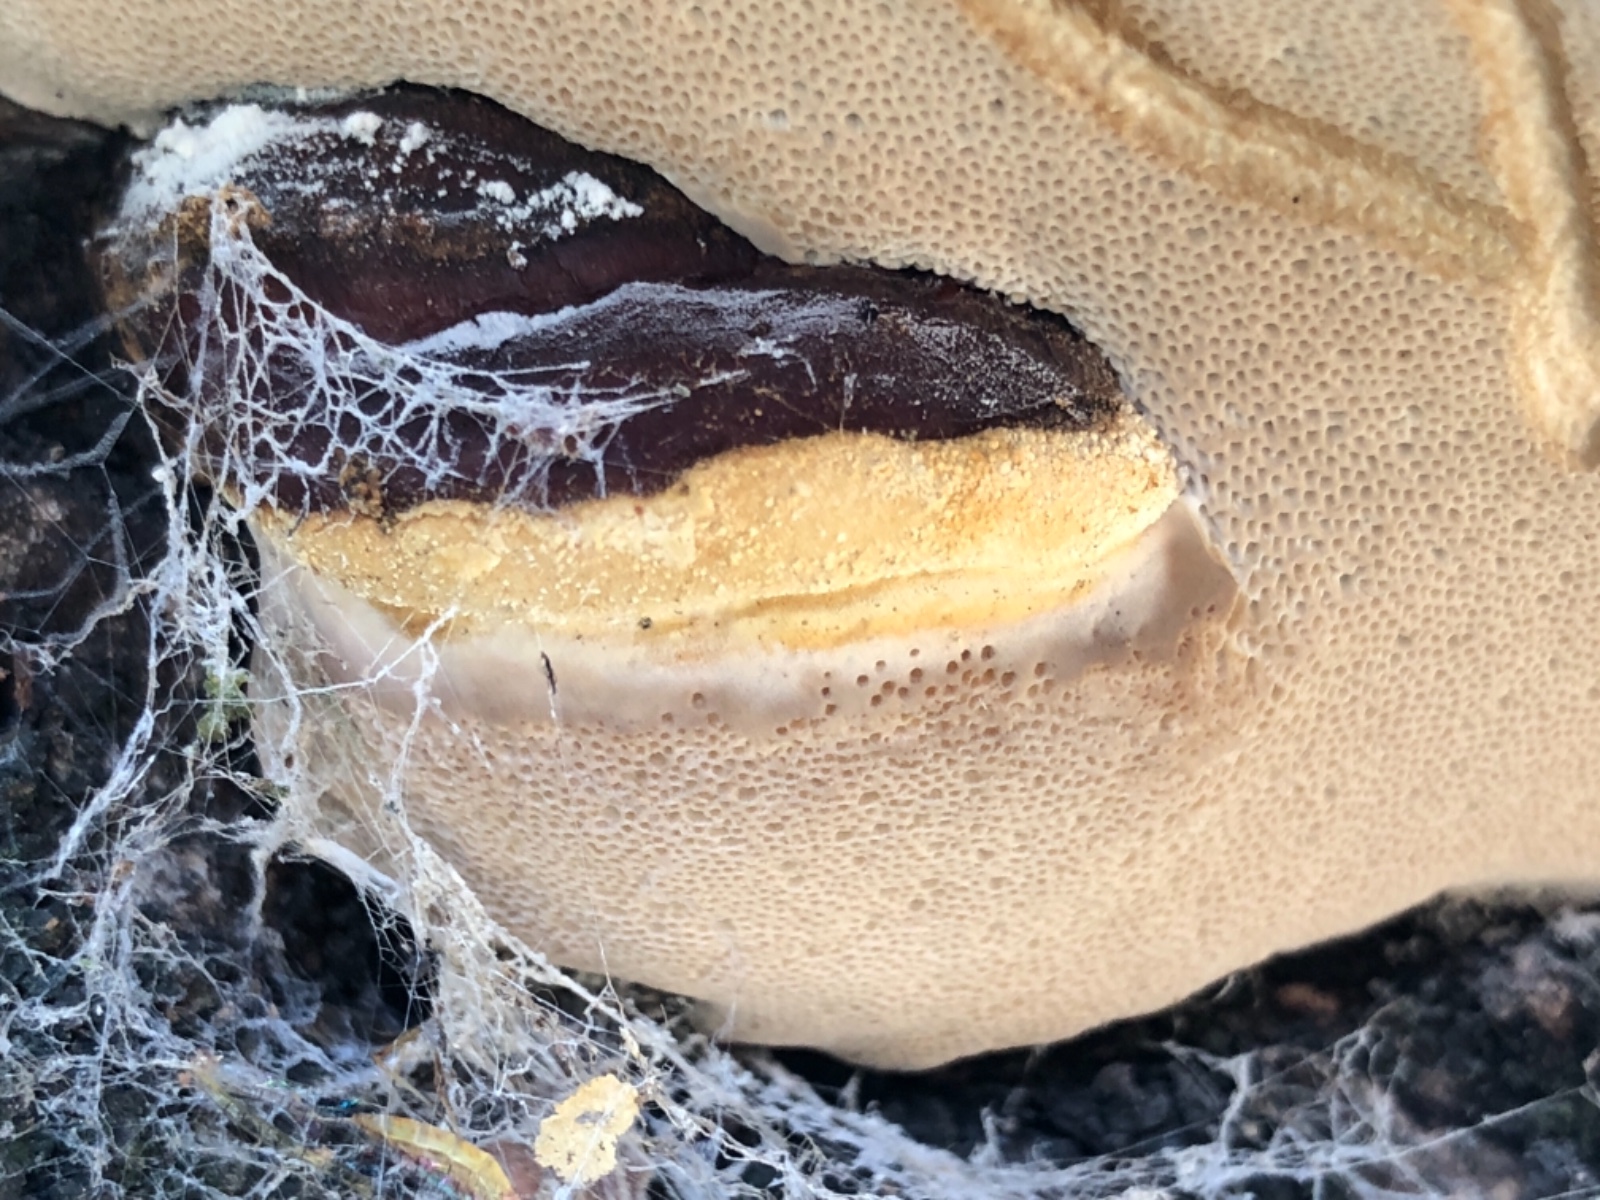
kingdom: Fungi
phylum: Basidiomycota
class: Agaricomycetes
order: Polyporales
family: Fomitopsidaceae
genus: Fomitopsis
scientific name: Fomitopsis pinicola
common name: randbæltet hovporesvamp
